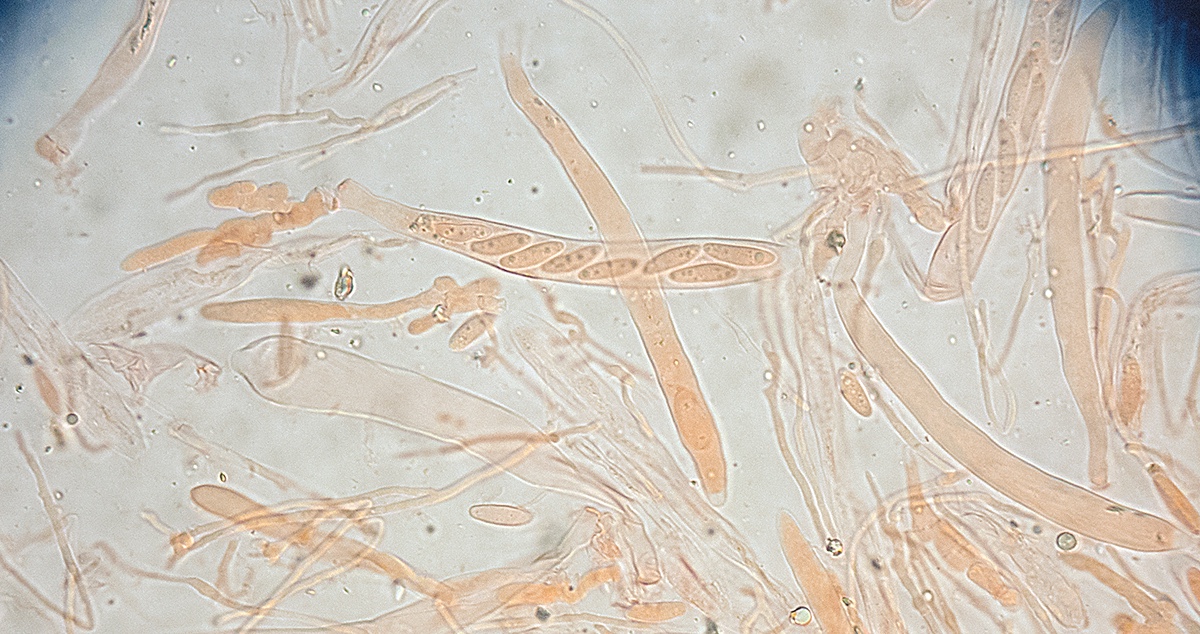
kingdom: Fungi
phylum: Ascomycota
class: Leotiomycetes
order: Helotiales
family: Gelatinodiscaceae
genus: Ombrophila
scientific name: Ombrophila
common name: bævreskive
